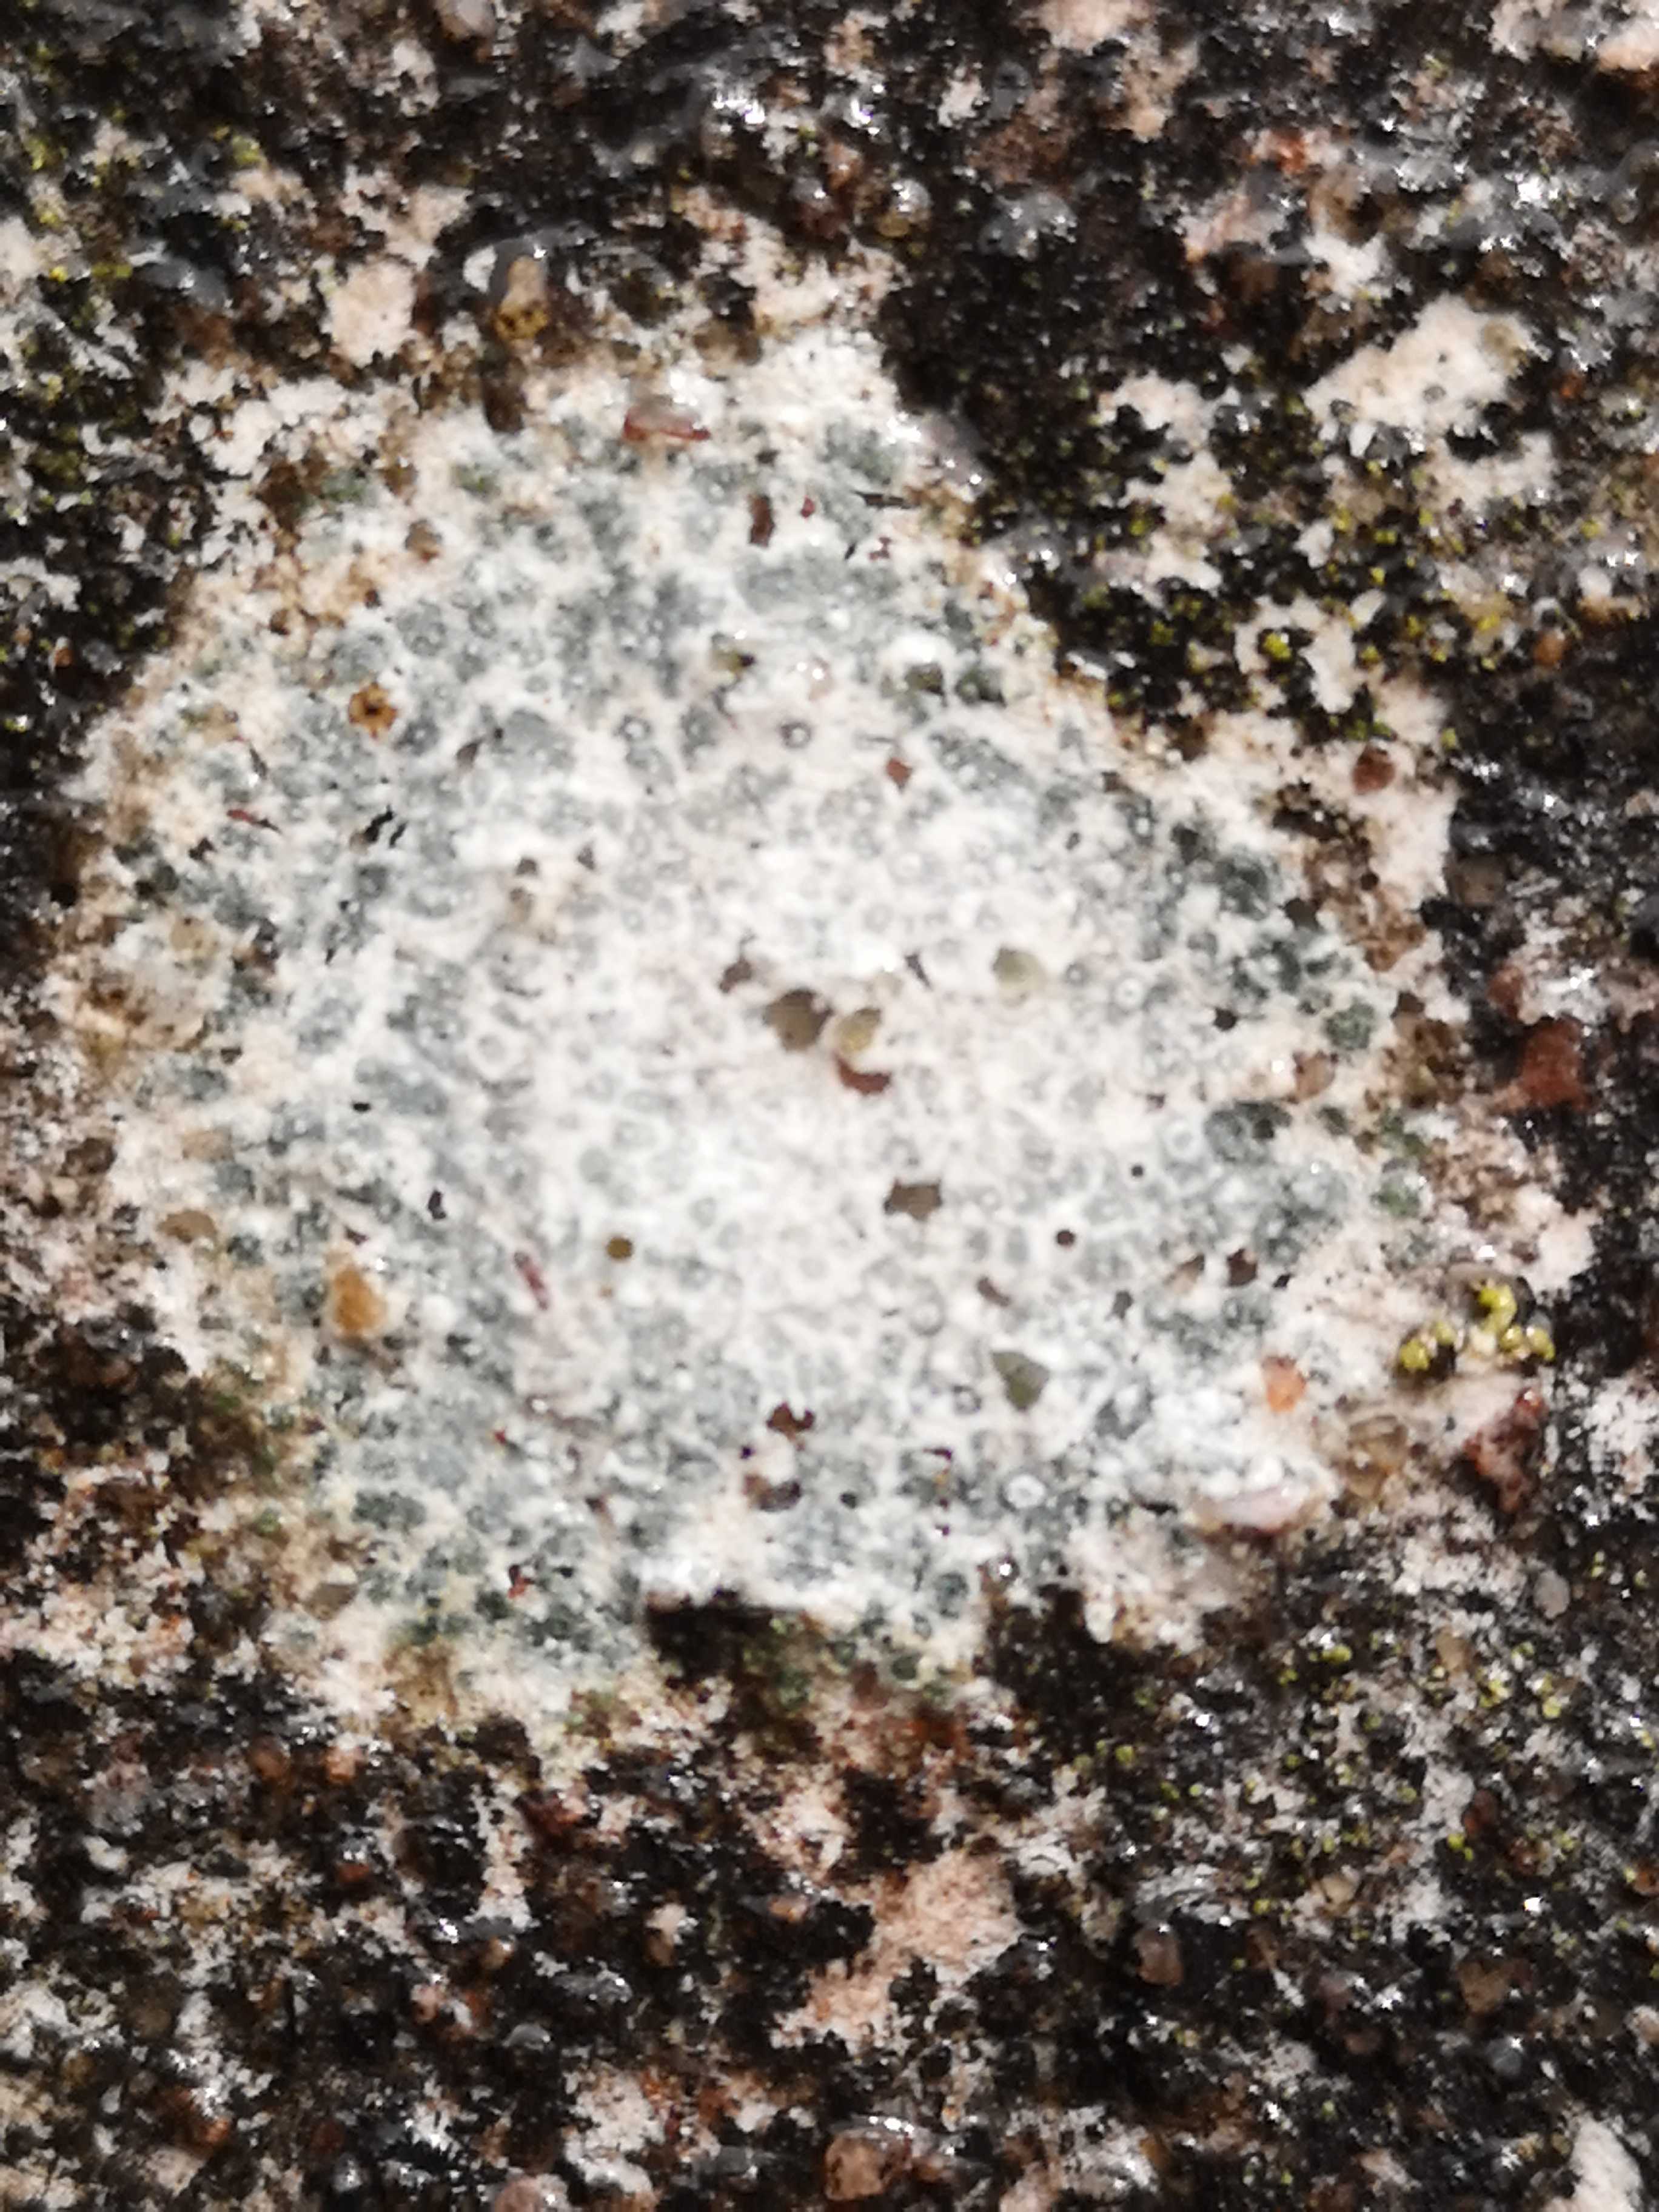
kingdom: Fungi
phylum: Ascomycota
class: Lecanoromycetes
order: Lecanorales
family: Parmeliaceae
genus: Lichen
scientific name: Lichen
